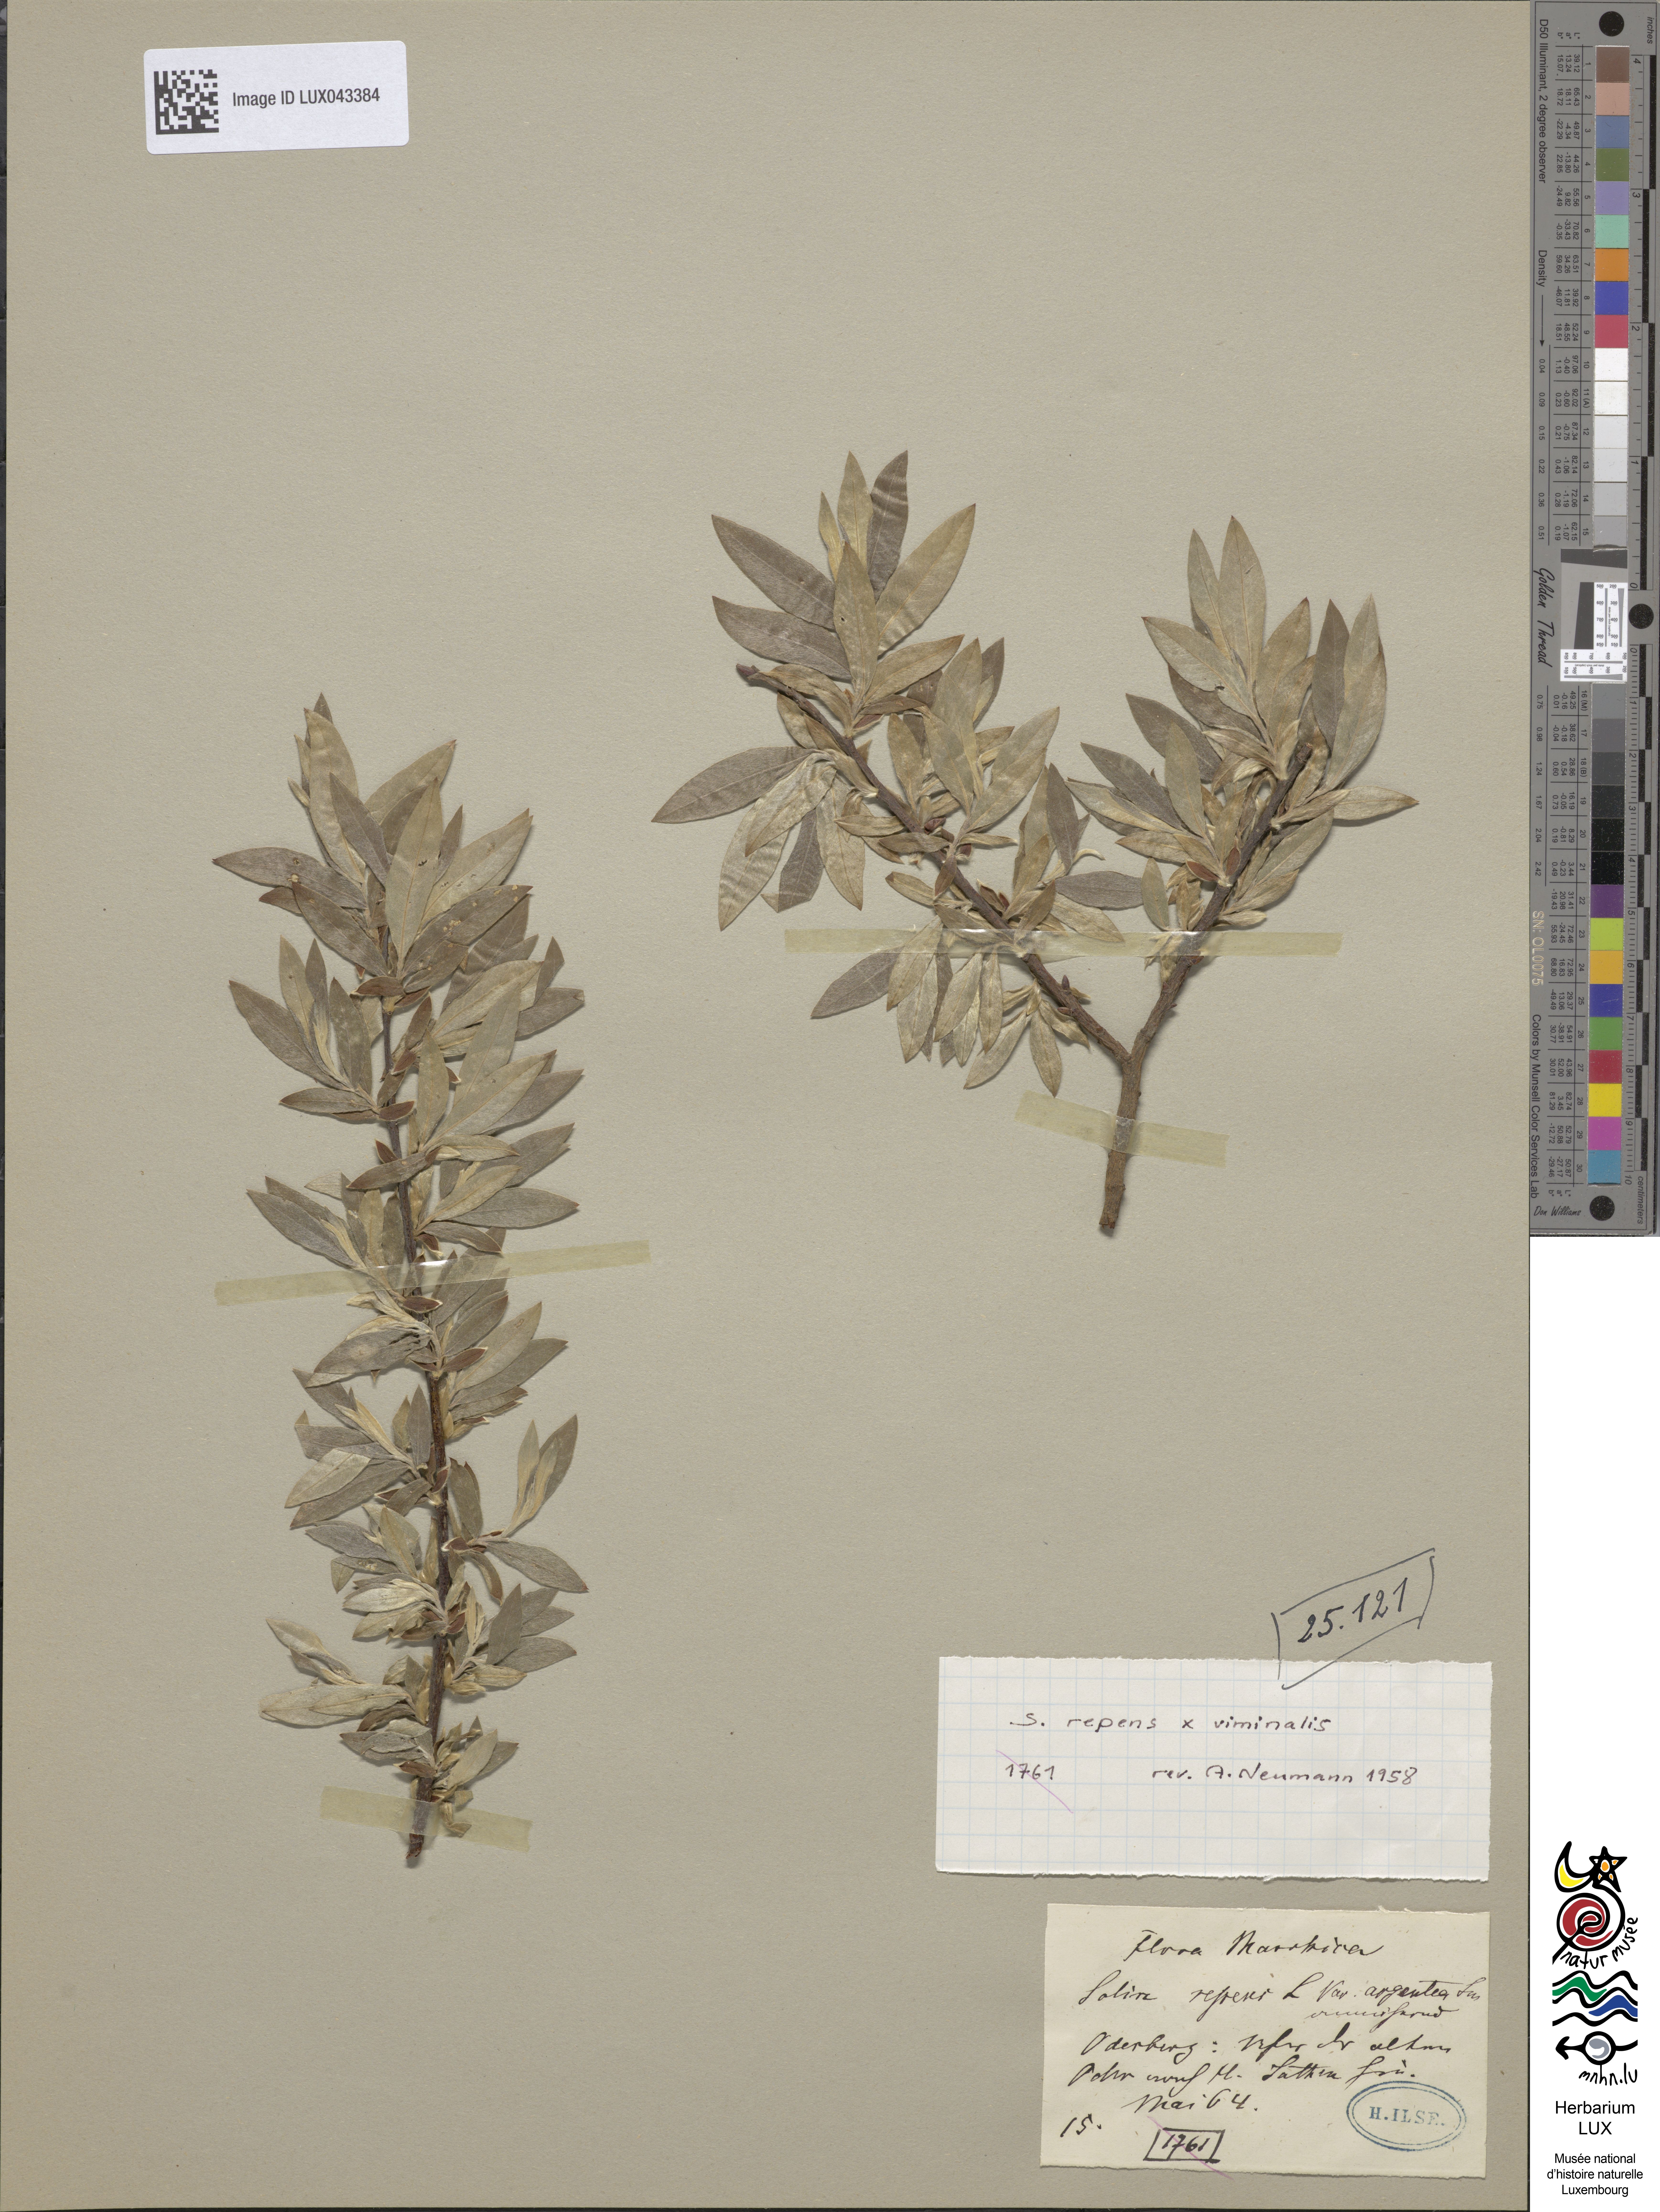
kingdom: Plantae
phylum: Tracheophyta
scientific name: Tracheophyta
